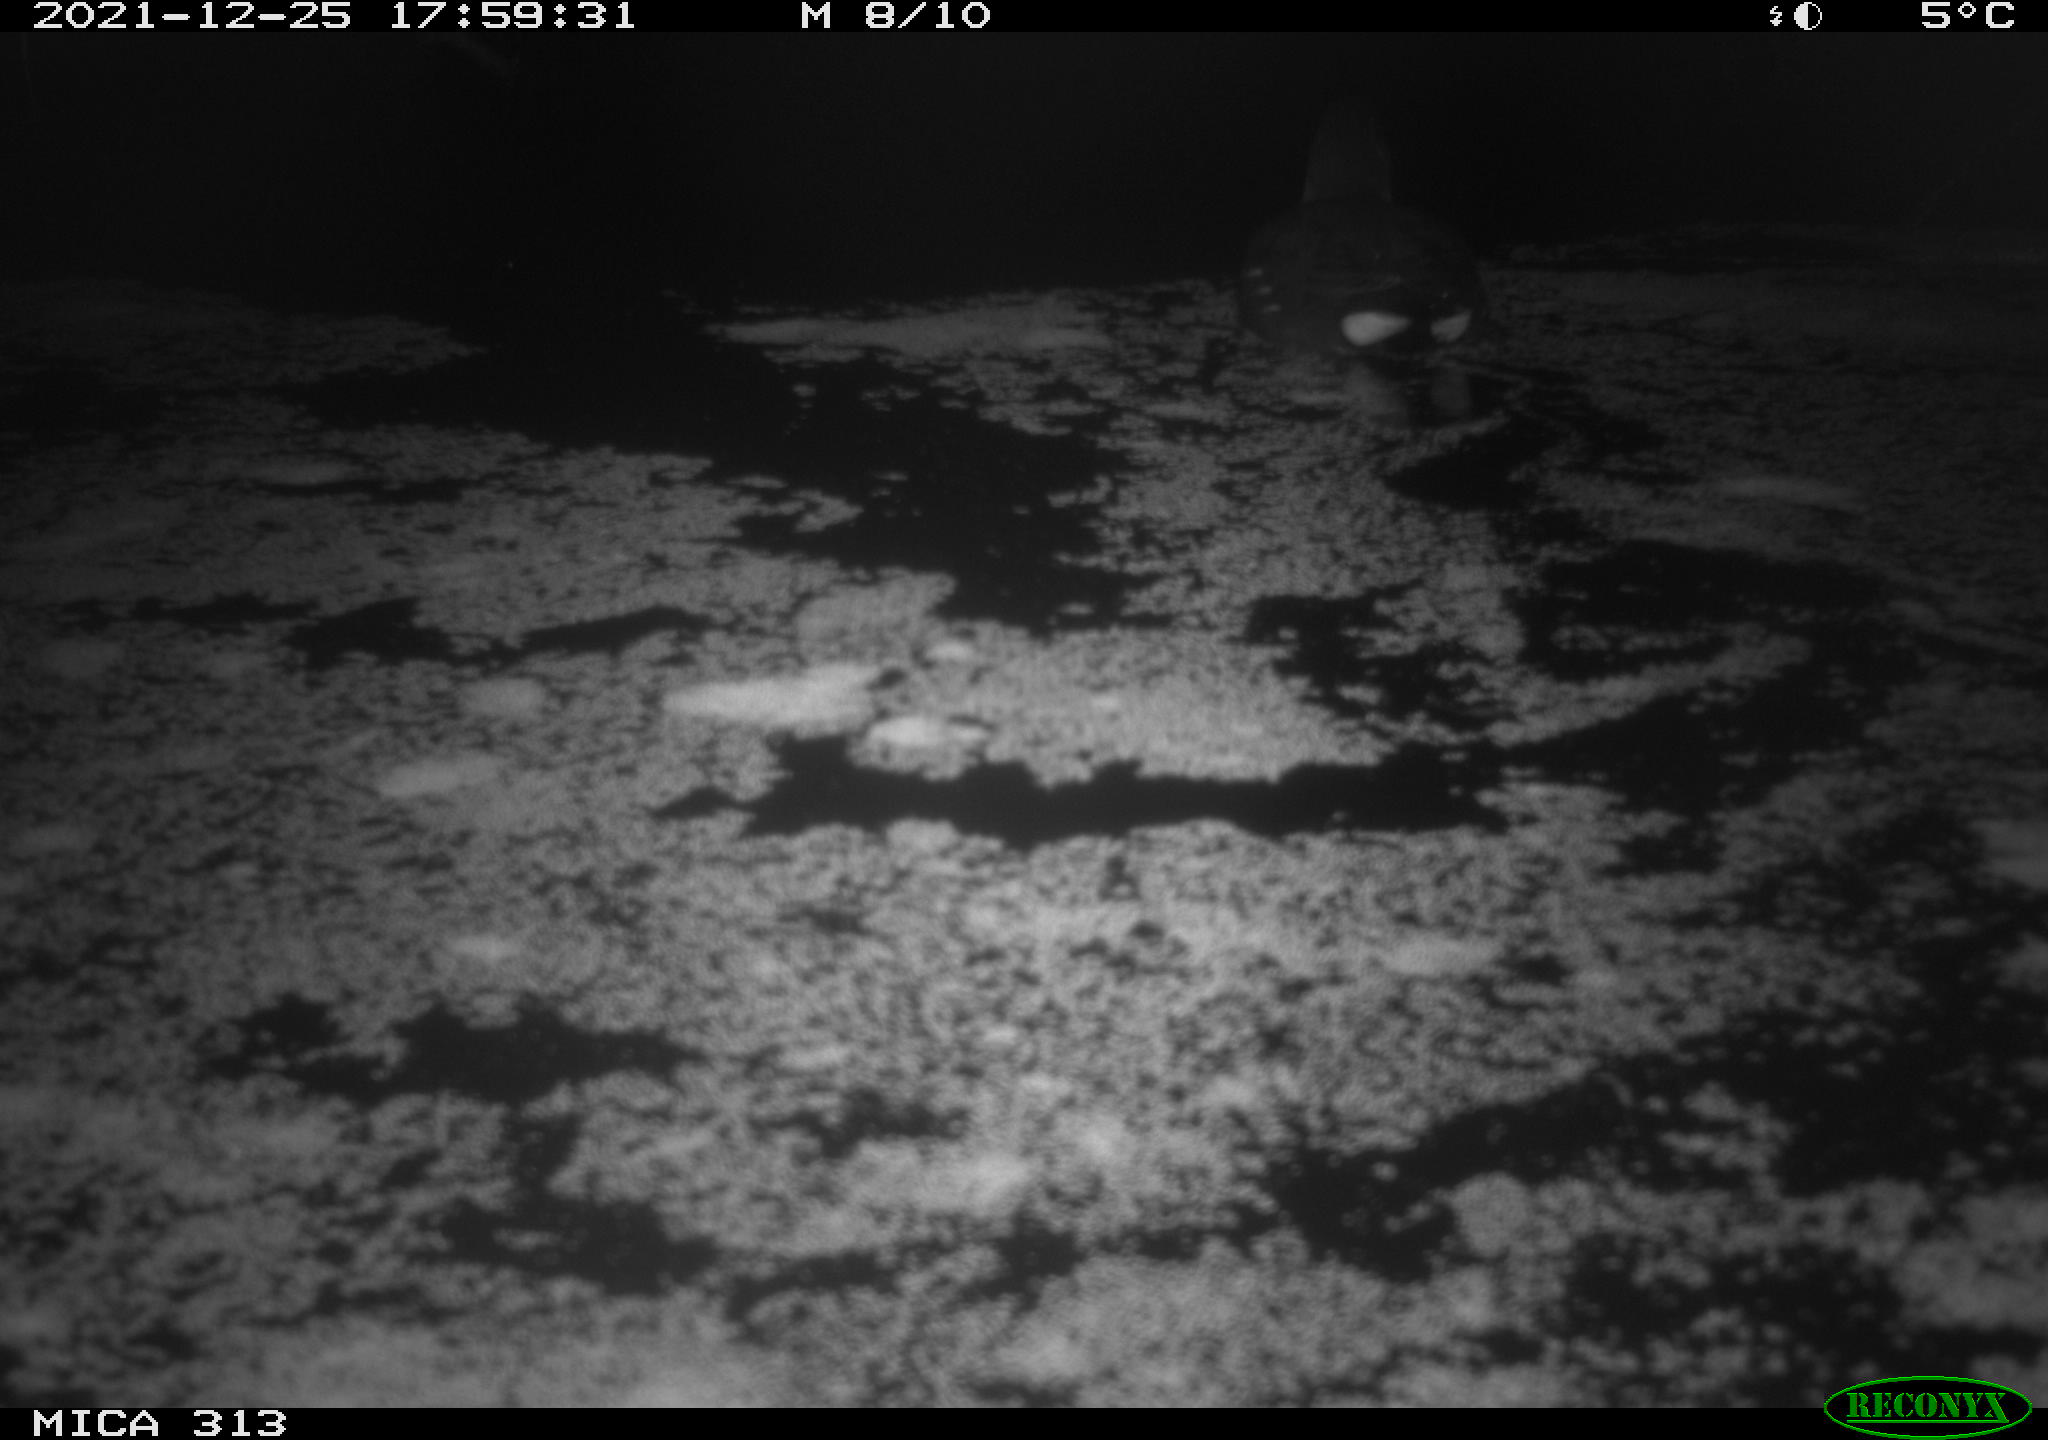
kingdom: Animalia
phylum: Chordata
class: Aves
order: Gruiformes
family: Rallidae
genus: Gallinula
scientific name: Gallinula chloropus
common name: Common moorhen
